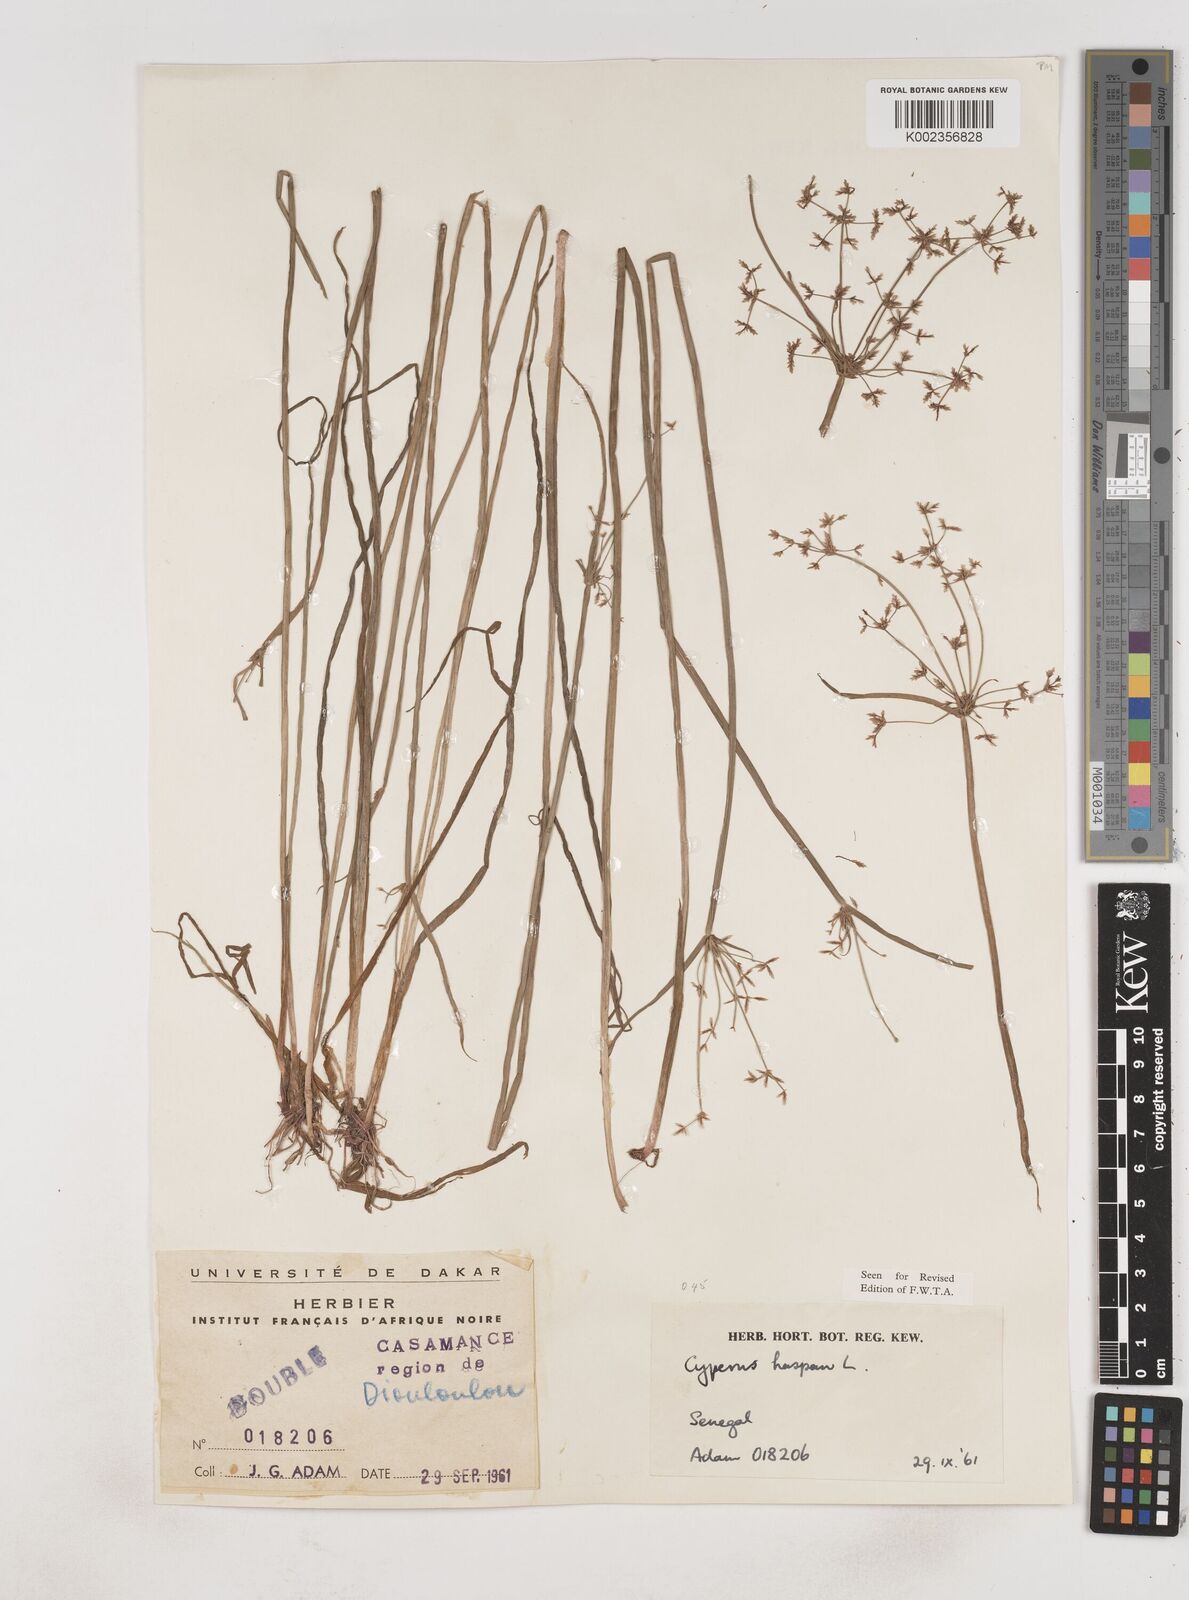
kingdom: Plantae
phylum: Tracheophyta
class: Liliopsida
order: Poales
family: Cyperaceae
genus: Cyperus
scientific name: Cyperus haspan
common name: Haspan flatsedge
